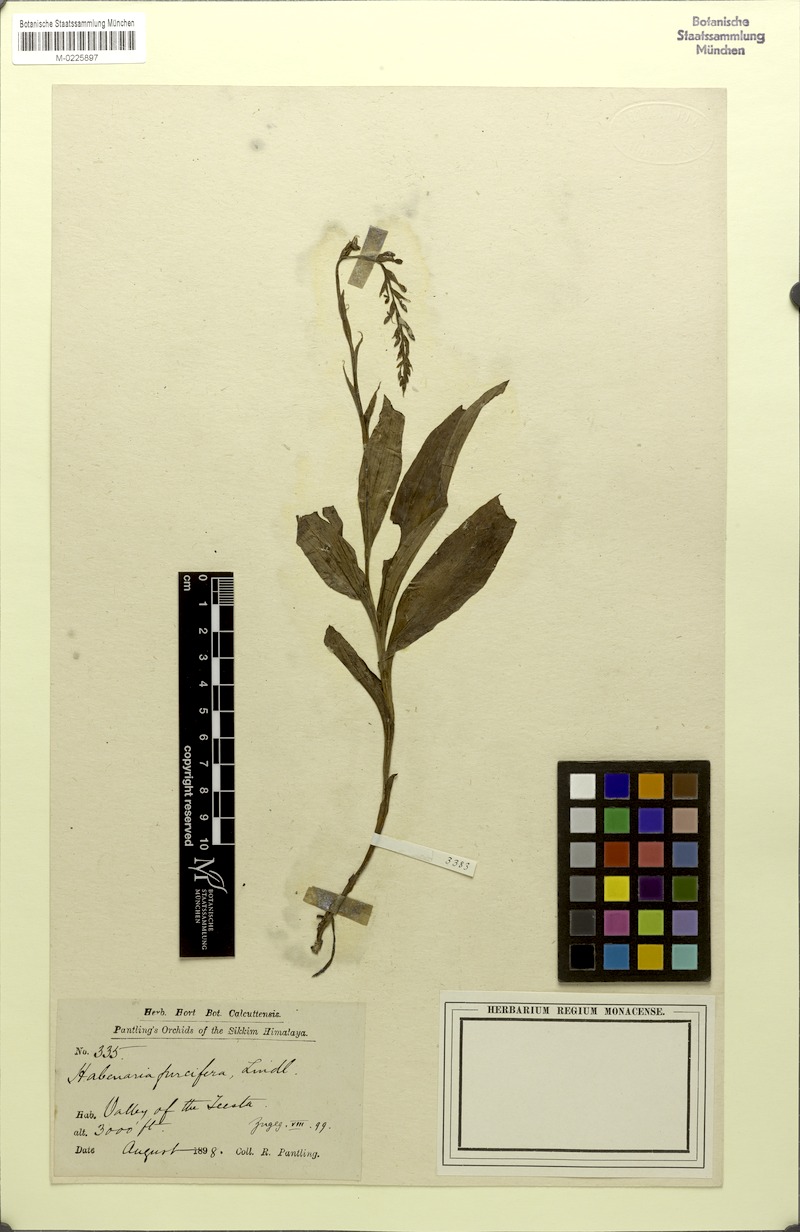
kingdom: Plantae
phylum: Tracheophyta
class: Liliopsida
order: Asparagales
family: Orchidaceae
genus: Habenaria
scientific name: Habenaria furcifera
